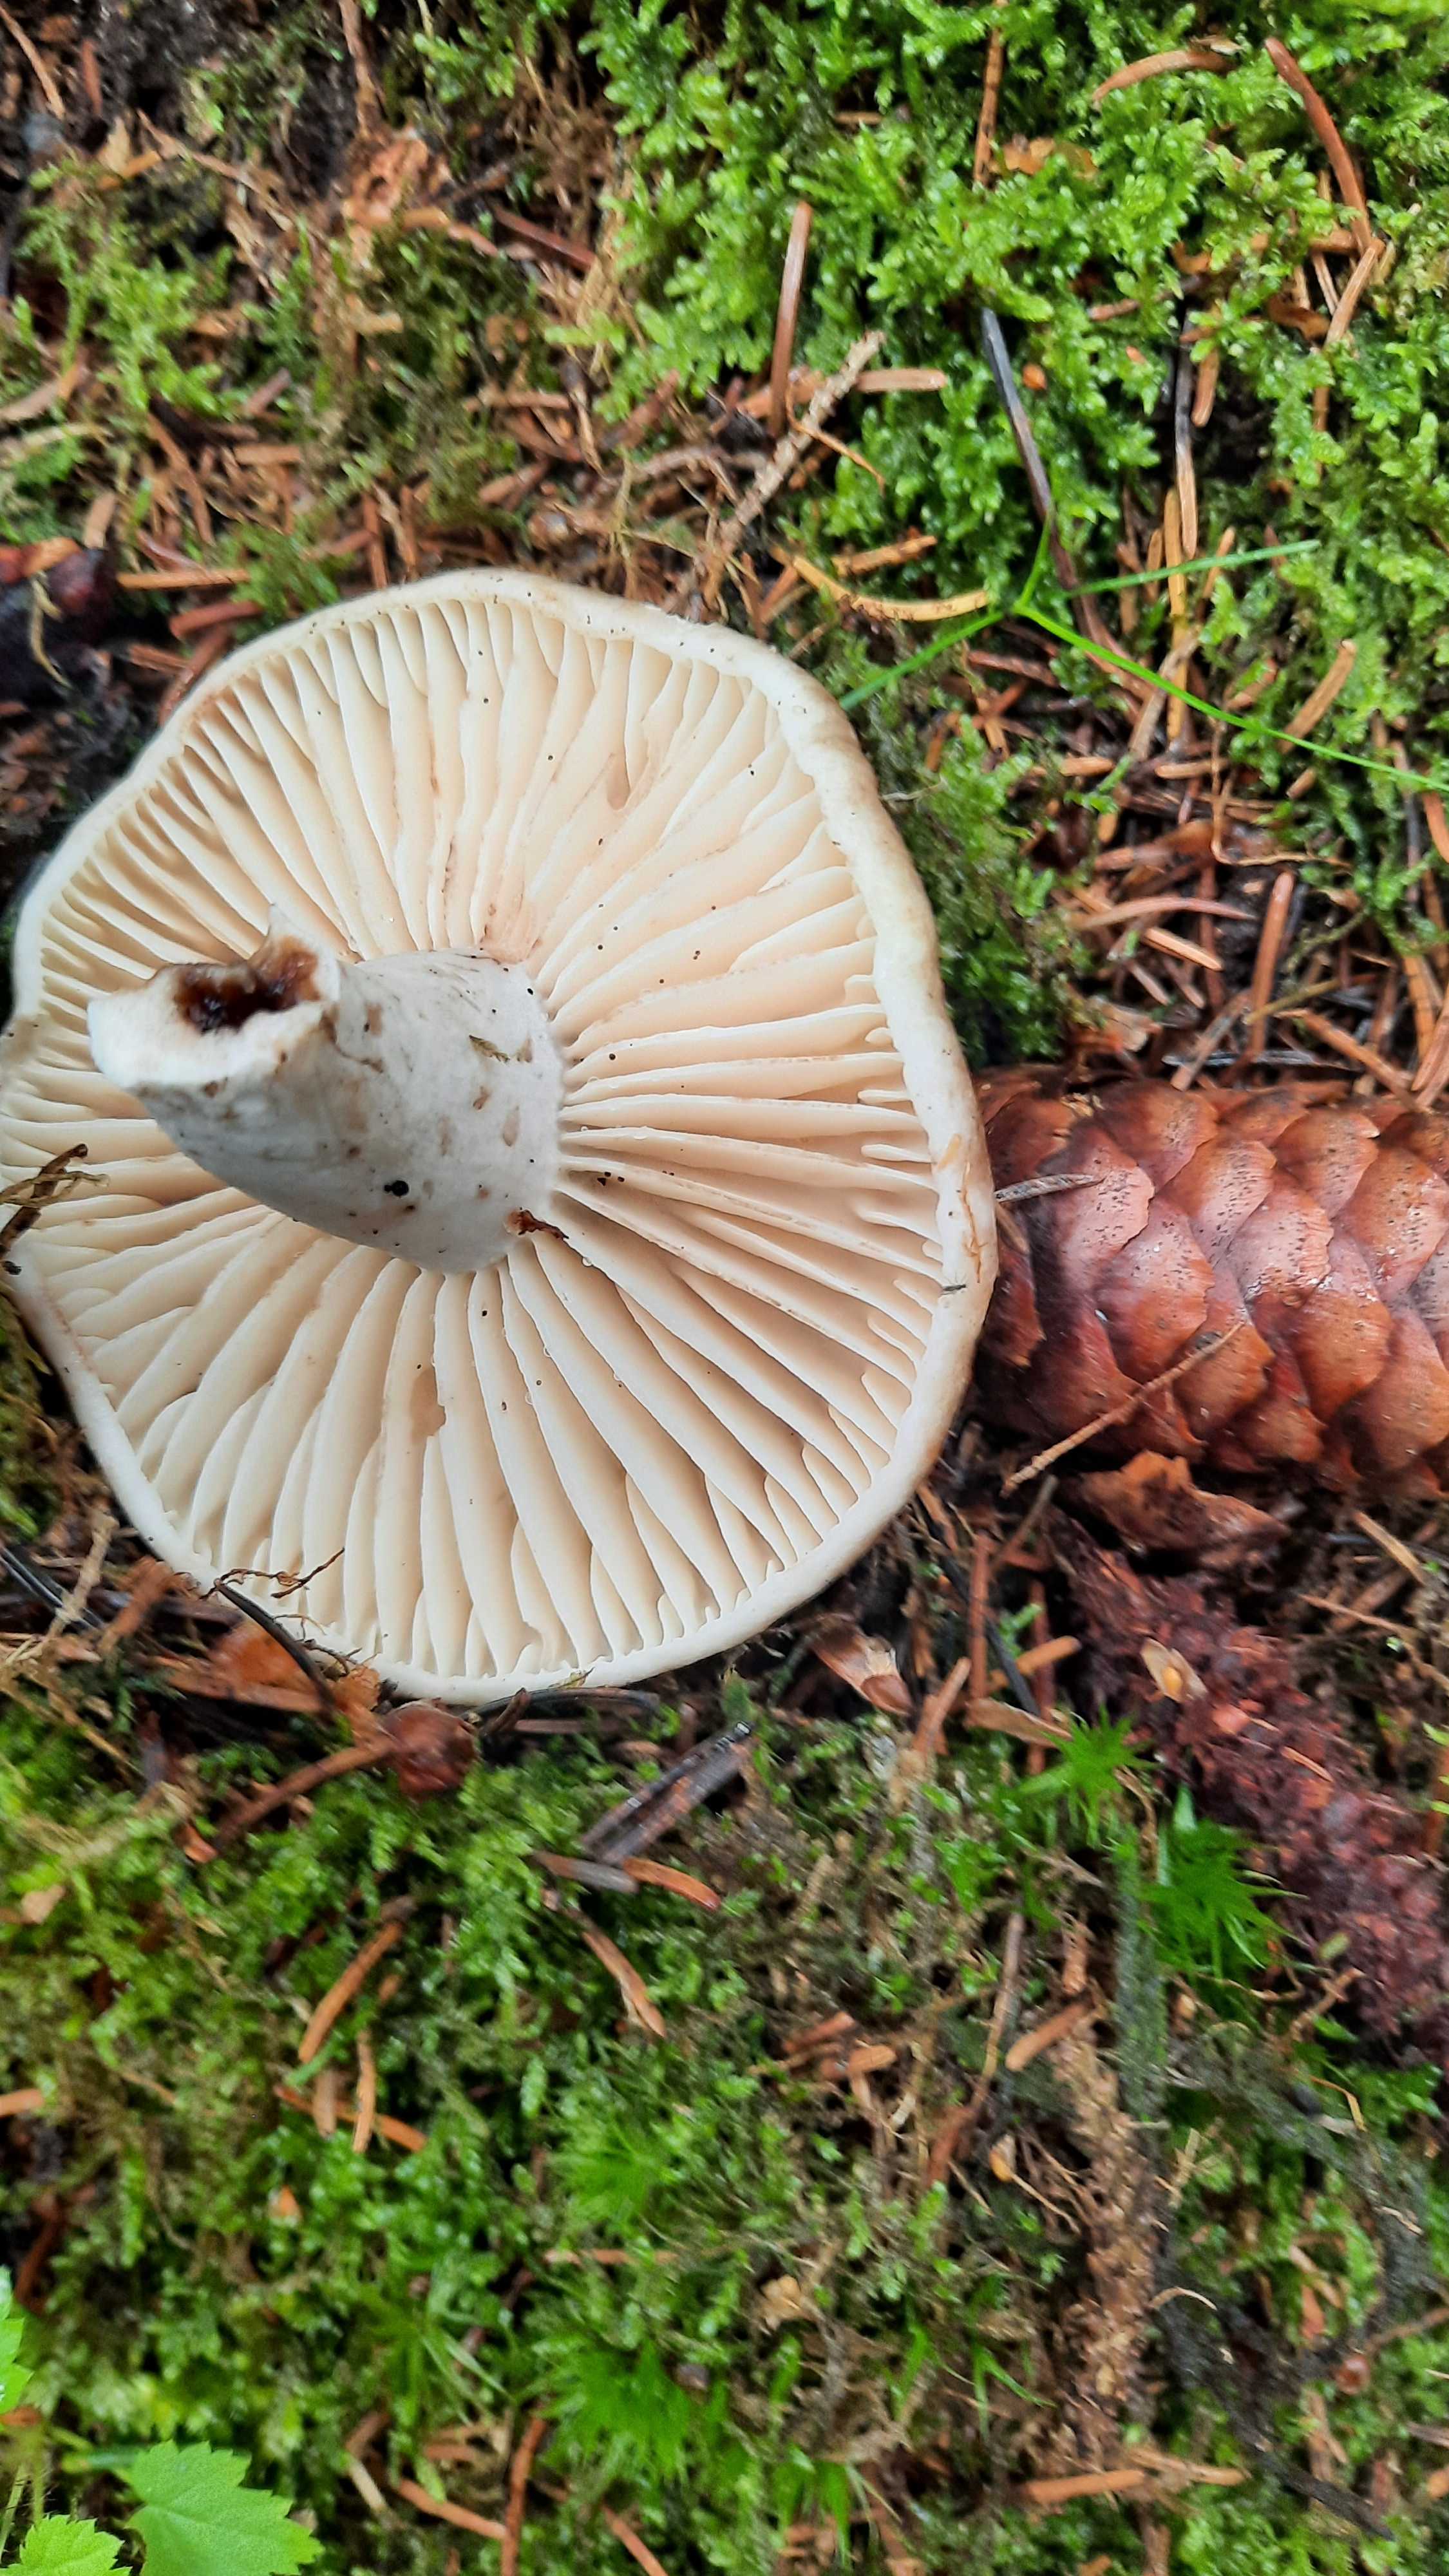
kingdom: Fungi
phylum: Basidiomycota
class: Agaricomycetes
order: Russulales
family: Russulaceae
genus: Russula
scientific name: Russula adusta
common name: sværtende skørhat
